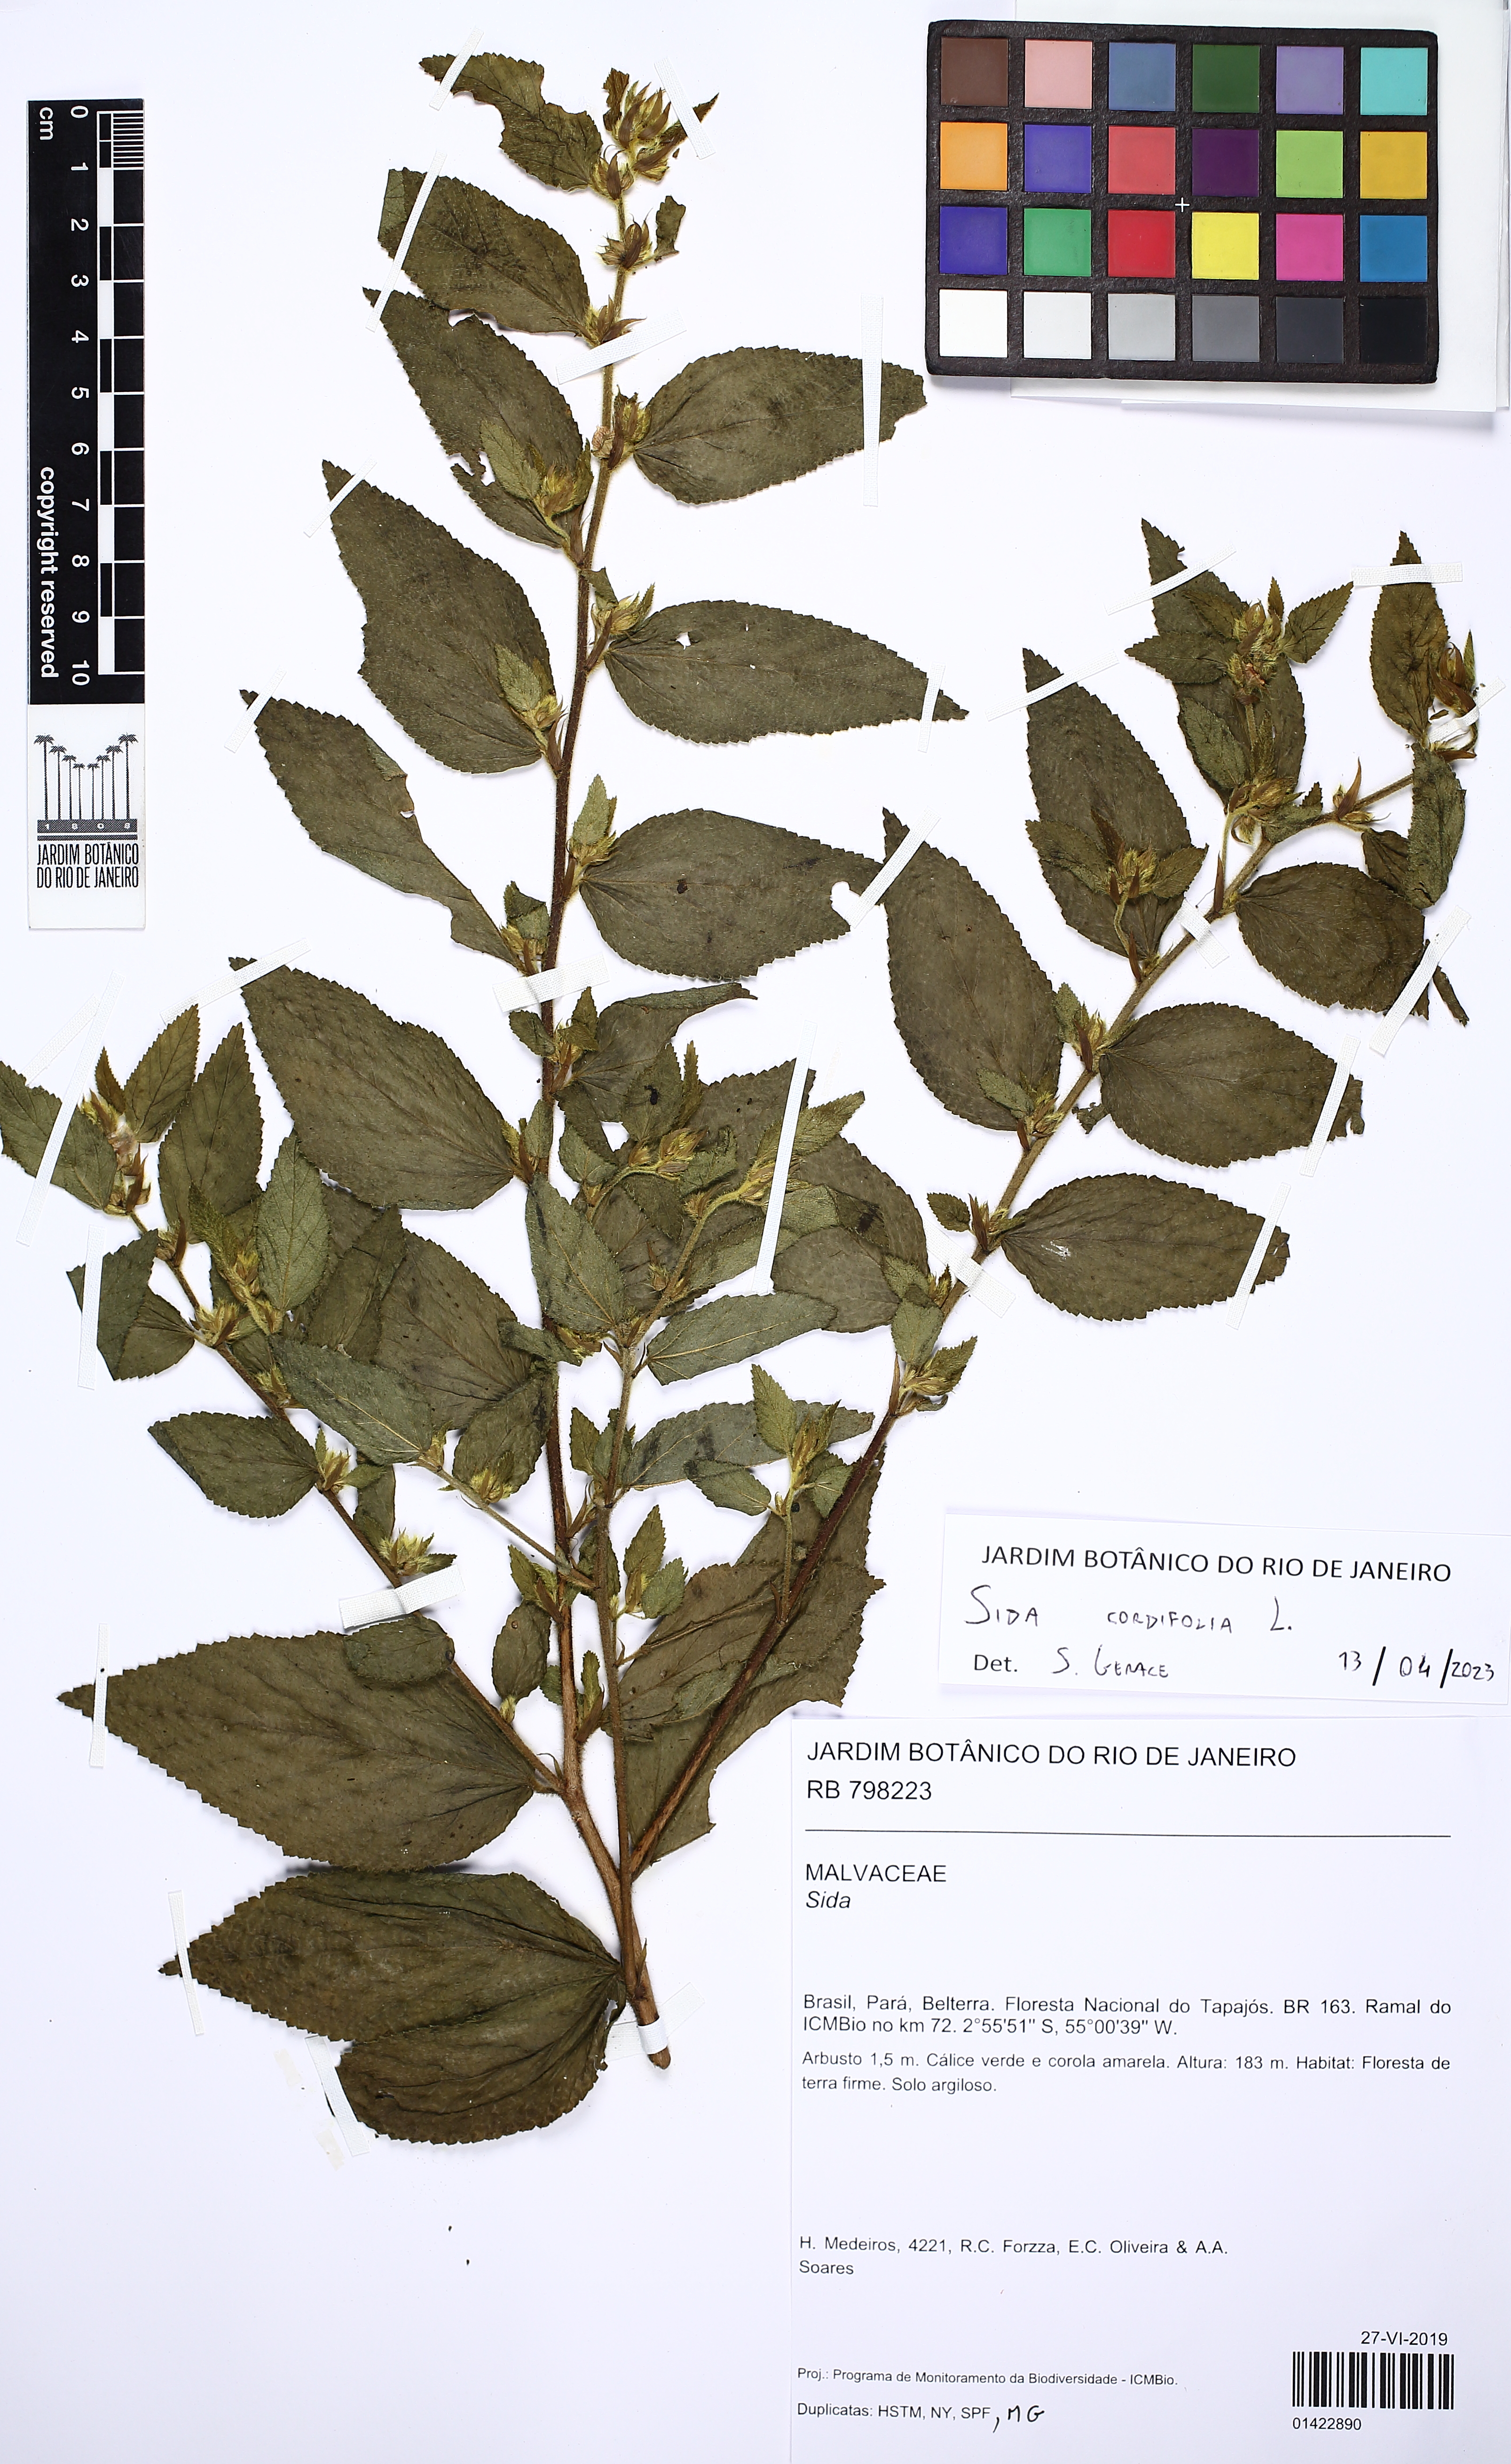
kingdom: Plantae
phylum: Tracheophyta
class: Magnoliopsida
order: Malvales
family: Malvaceae
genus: Sida
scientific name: Sida glomerata
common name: Clustered fanpetals
